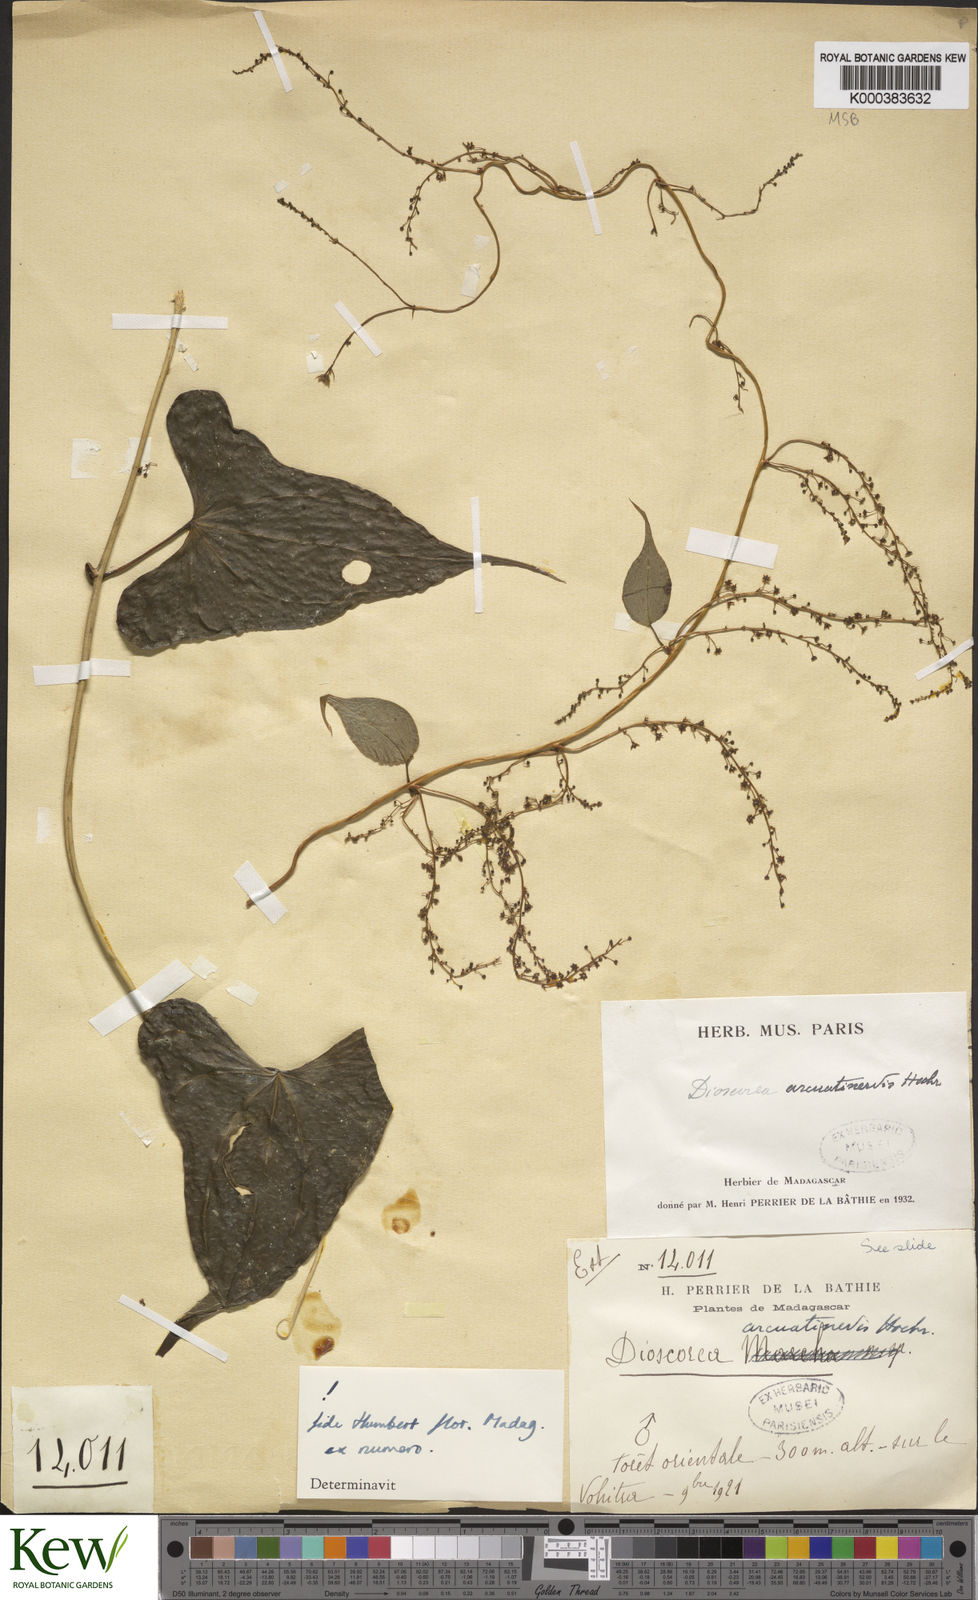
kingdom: Plantae
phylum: Tracheophyta
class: Liliopsida
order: Dioscoreales
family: Dioscoreaceae
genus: Dioscorea
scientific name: Dioscorea arcuatinervis
